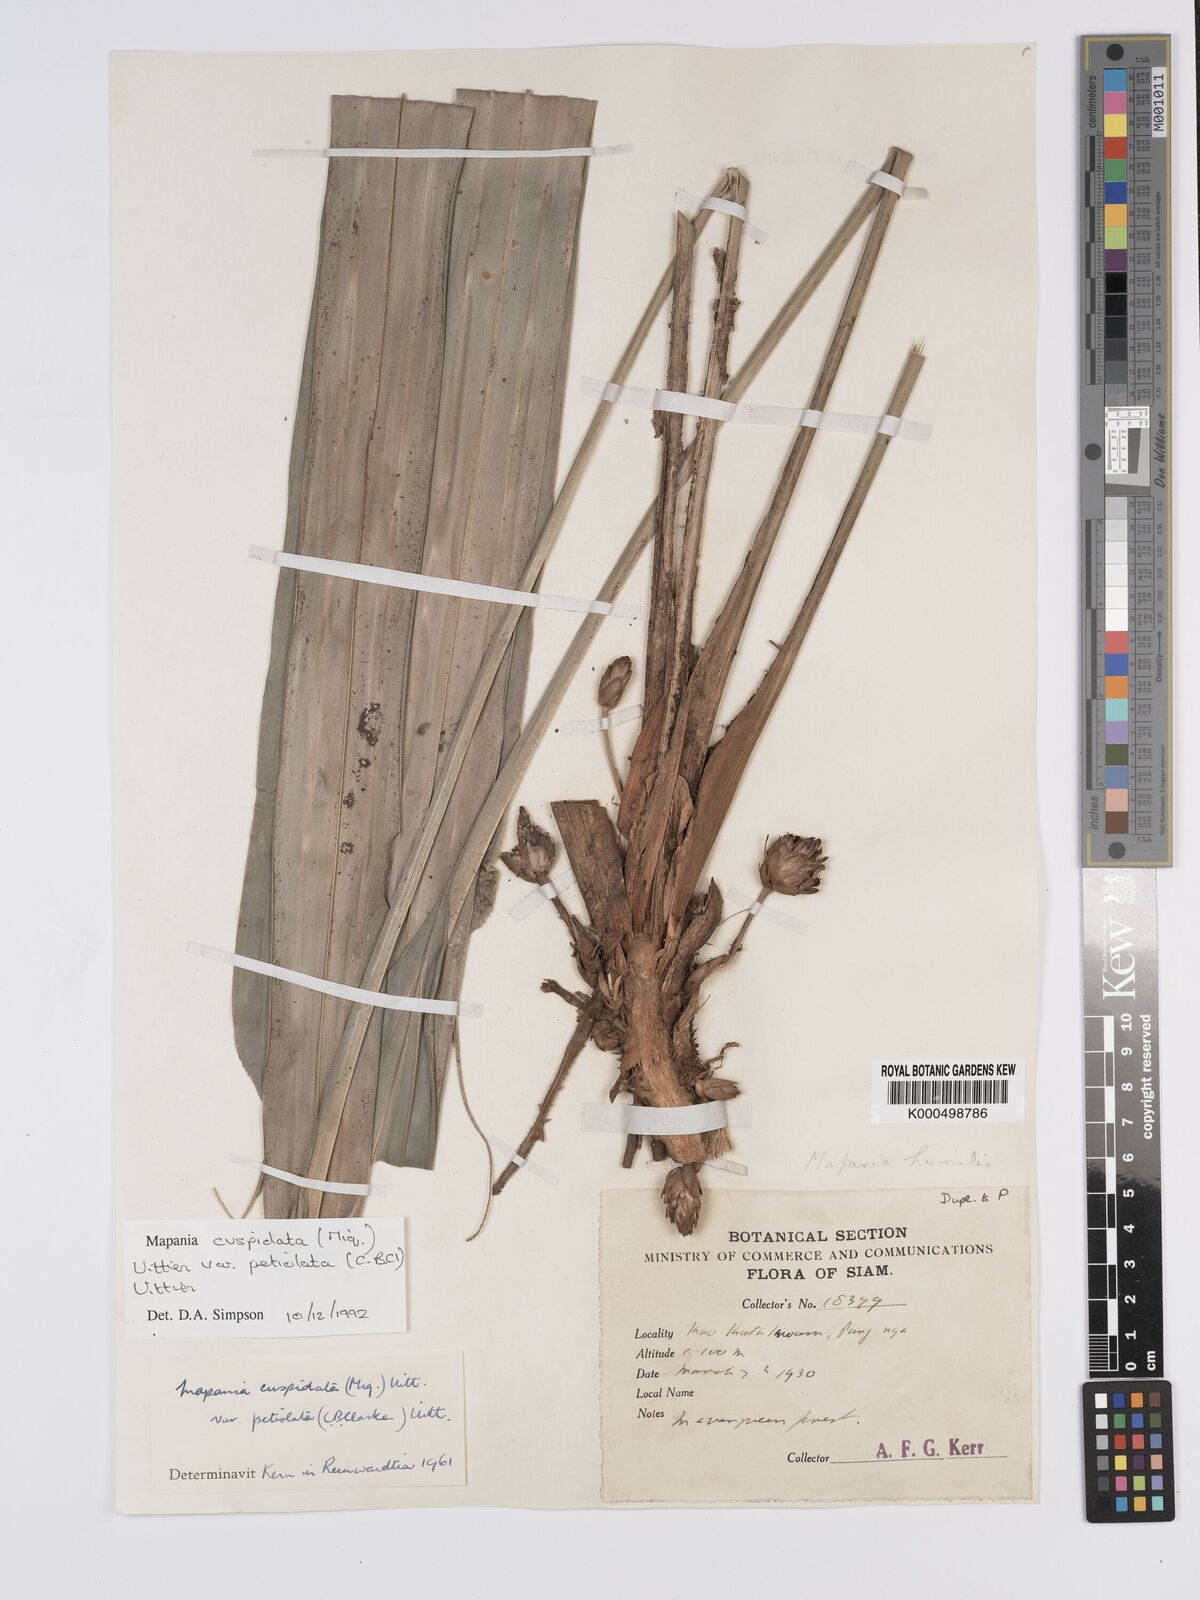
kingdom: Plantae
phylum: Tracheophyta
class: Liliopsida
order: Poales
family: Cyperaceae
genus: Mapania
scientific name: Mapania cuspidata
